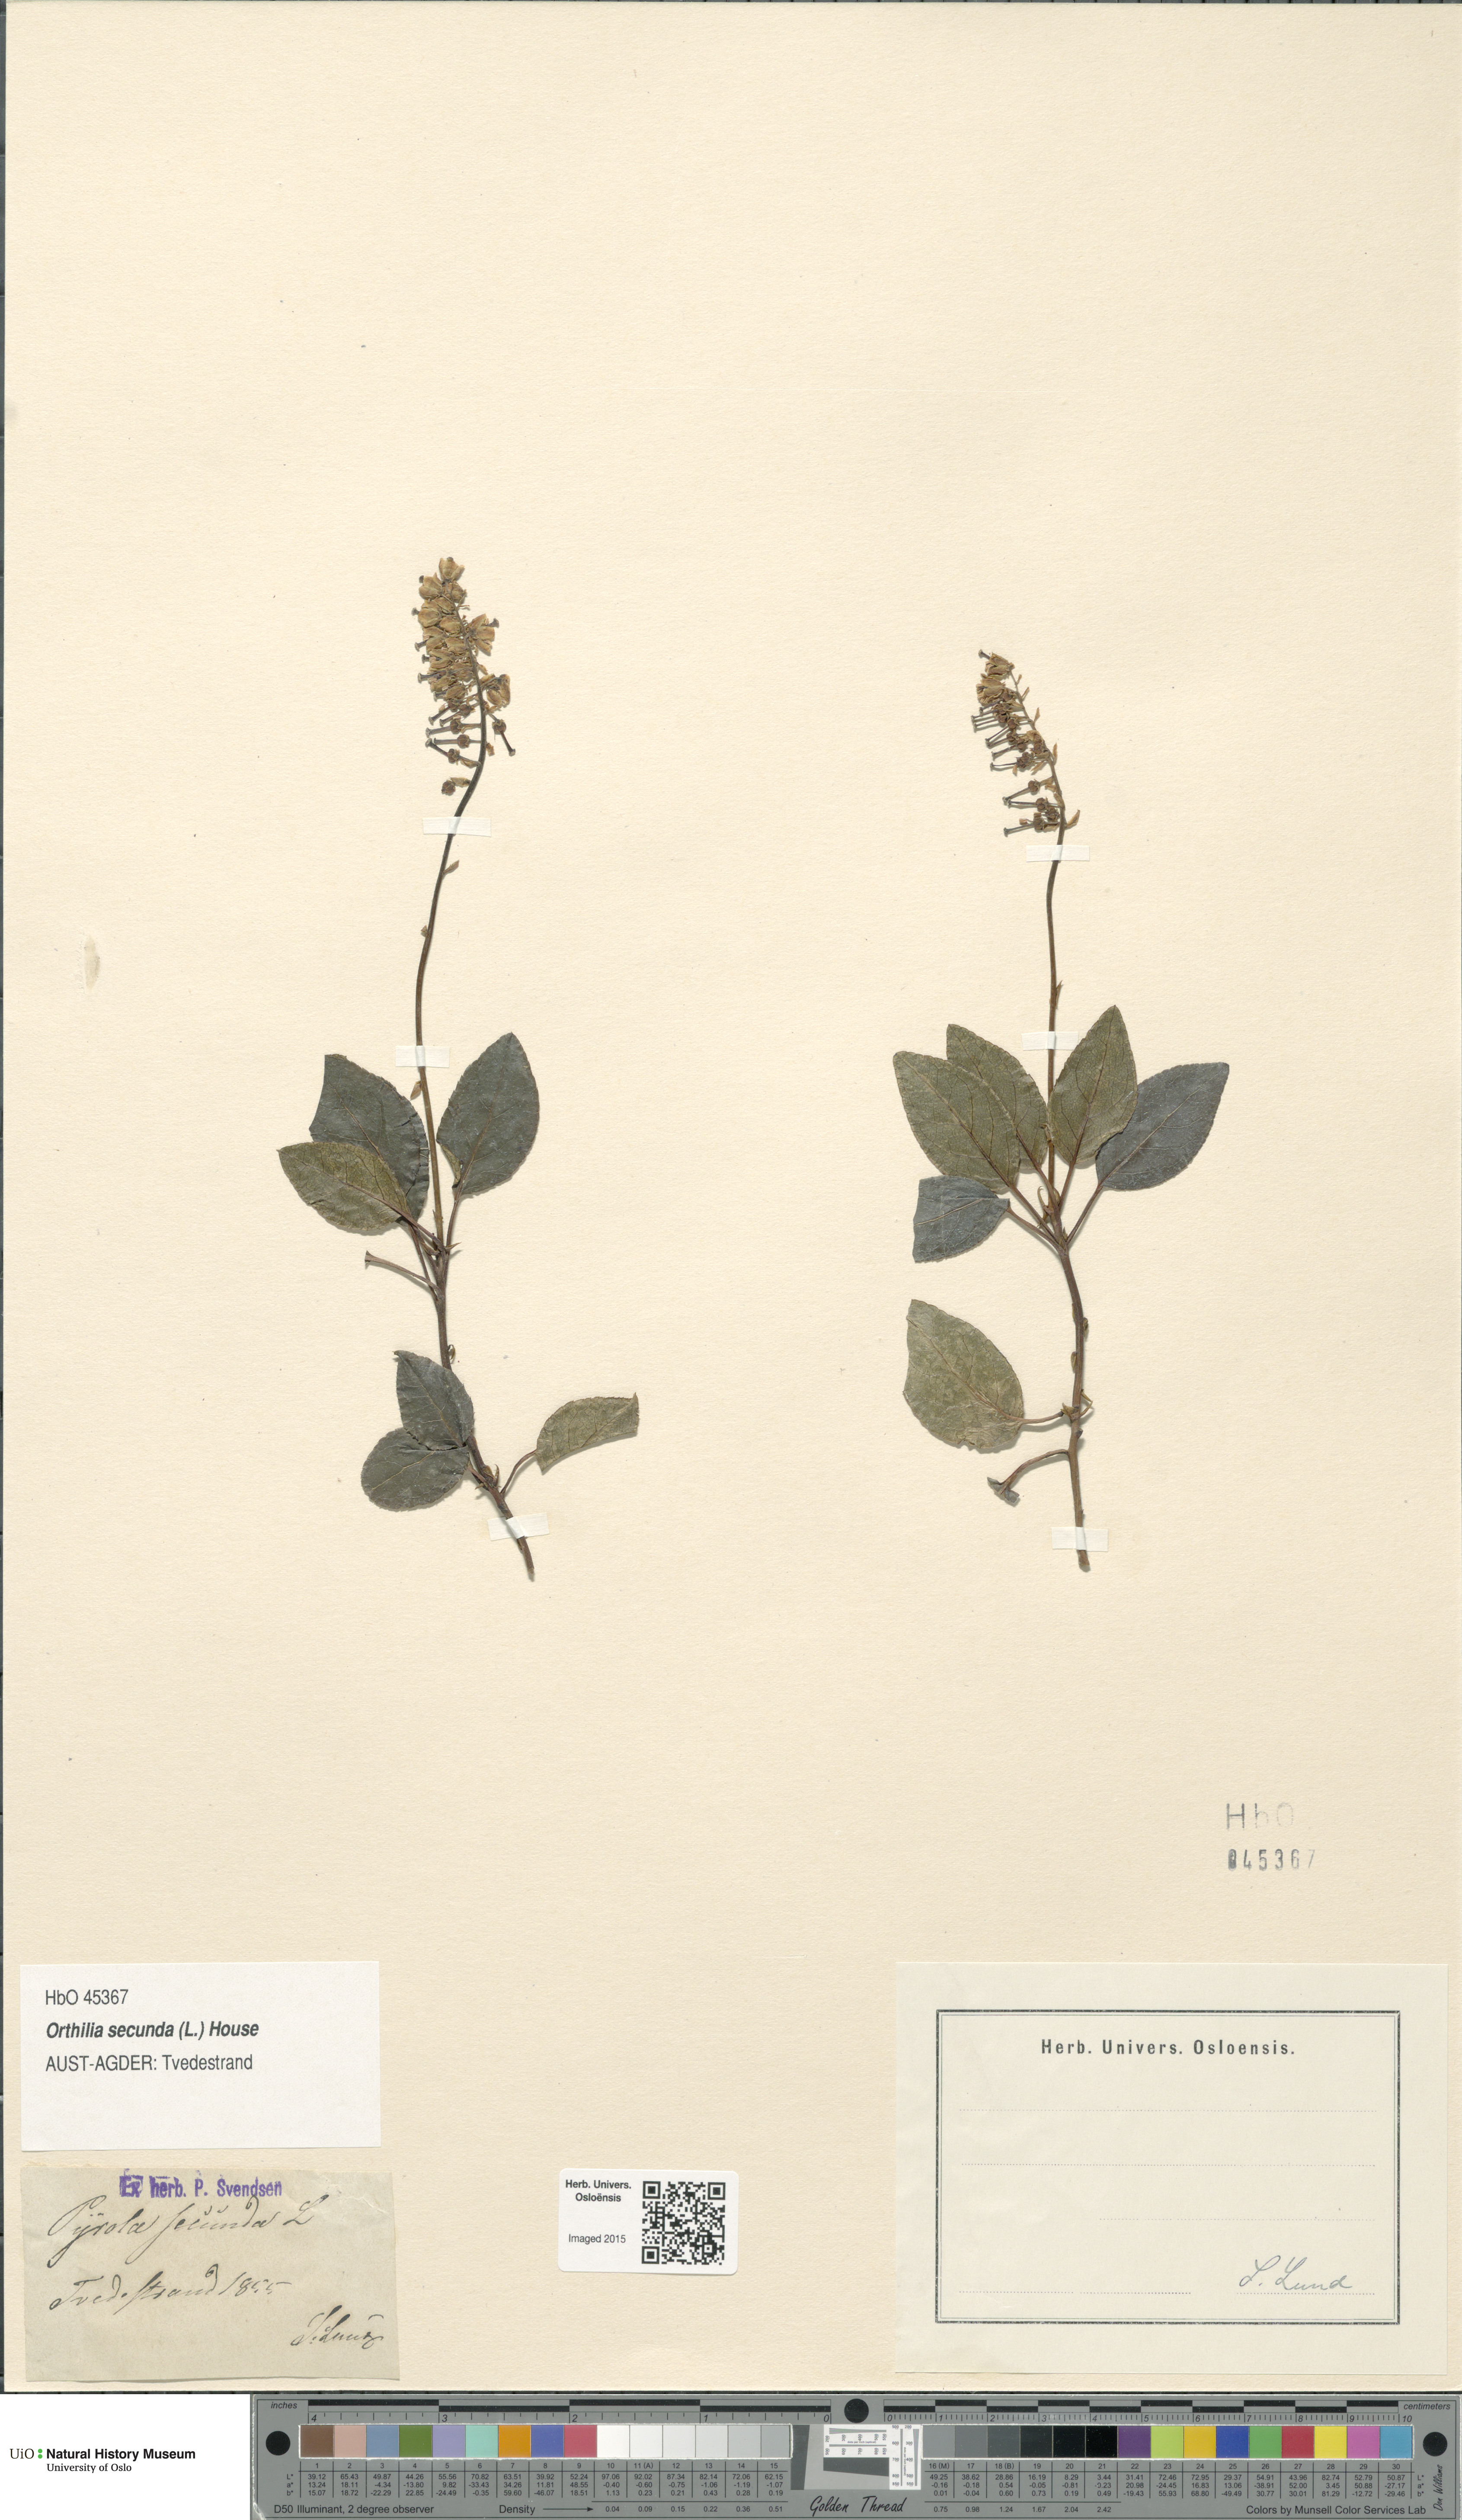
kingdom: Plantae
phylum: Tracheophyta
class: Magnoliopsida
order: Ericales
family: Ericaceae
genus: Orthilia
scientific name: Orthilia secunda
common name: One-sided orthilia
